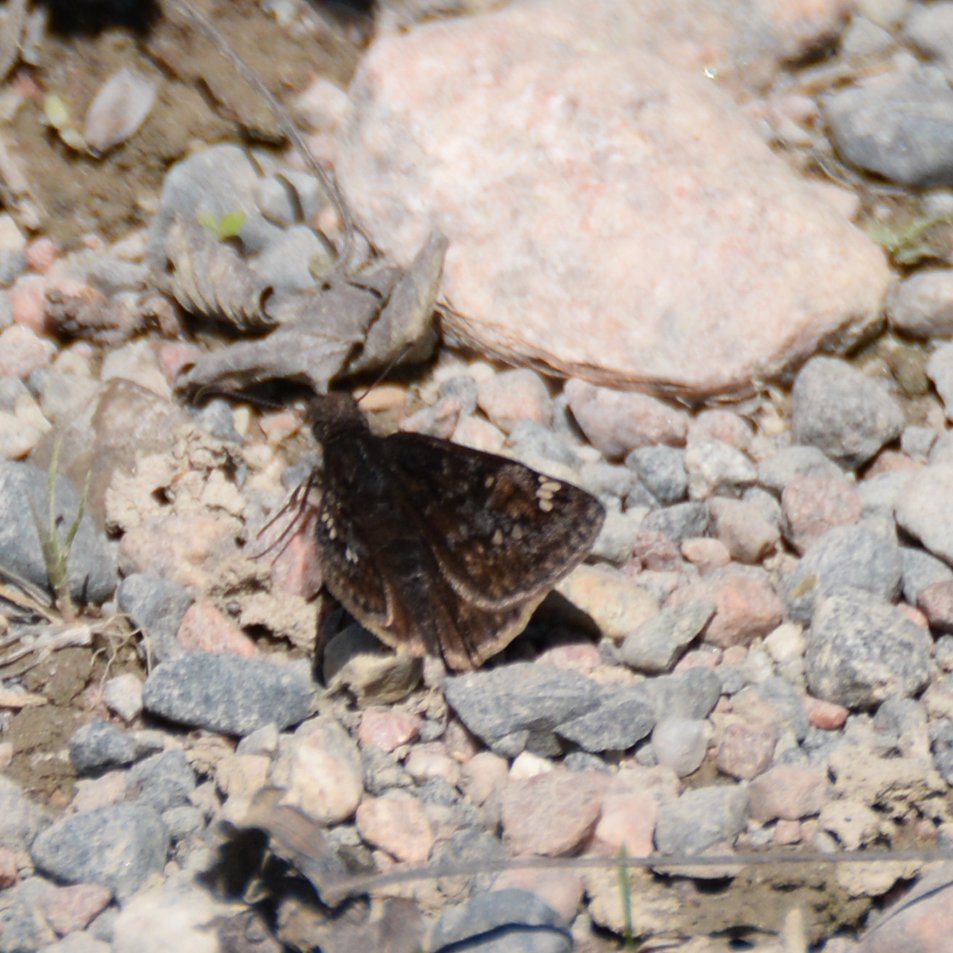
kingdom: Animalia
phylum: Arthropoda
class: Insecta
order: Lepidoptera
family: Hesperiidae
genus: Gesta
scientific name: Gesta
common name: Columbine Duskywing
